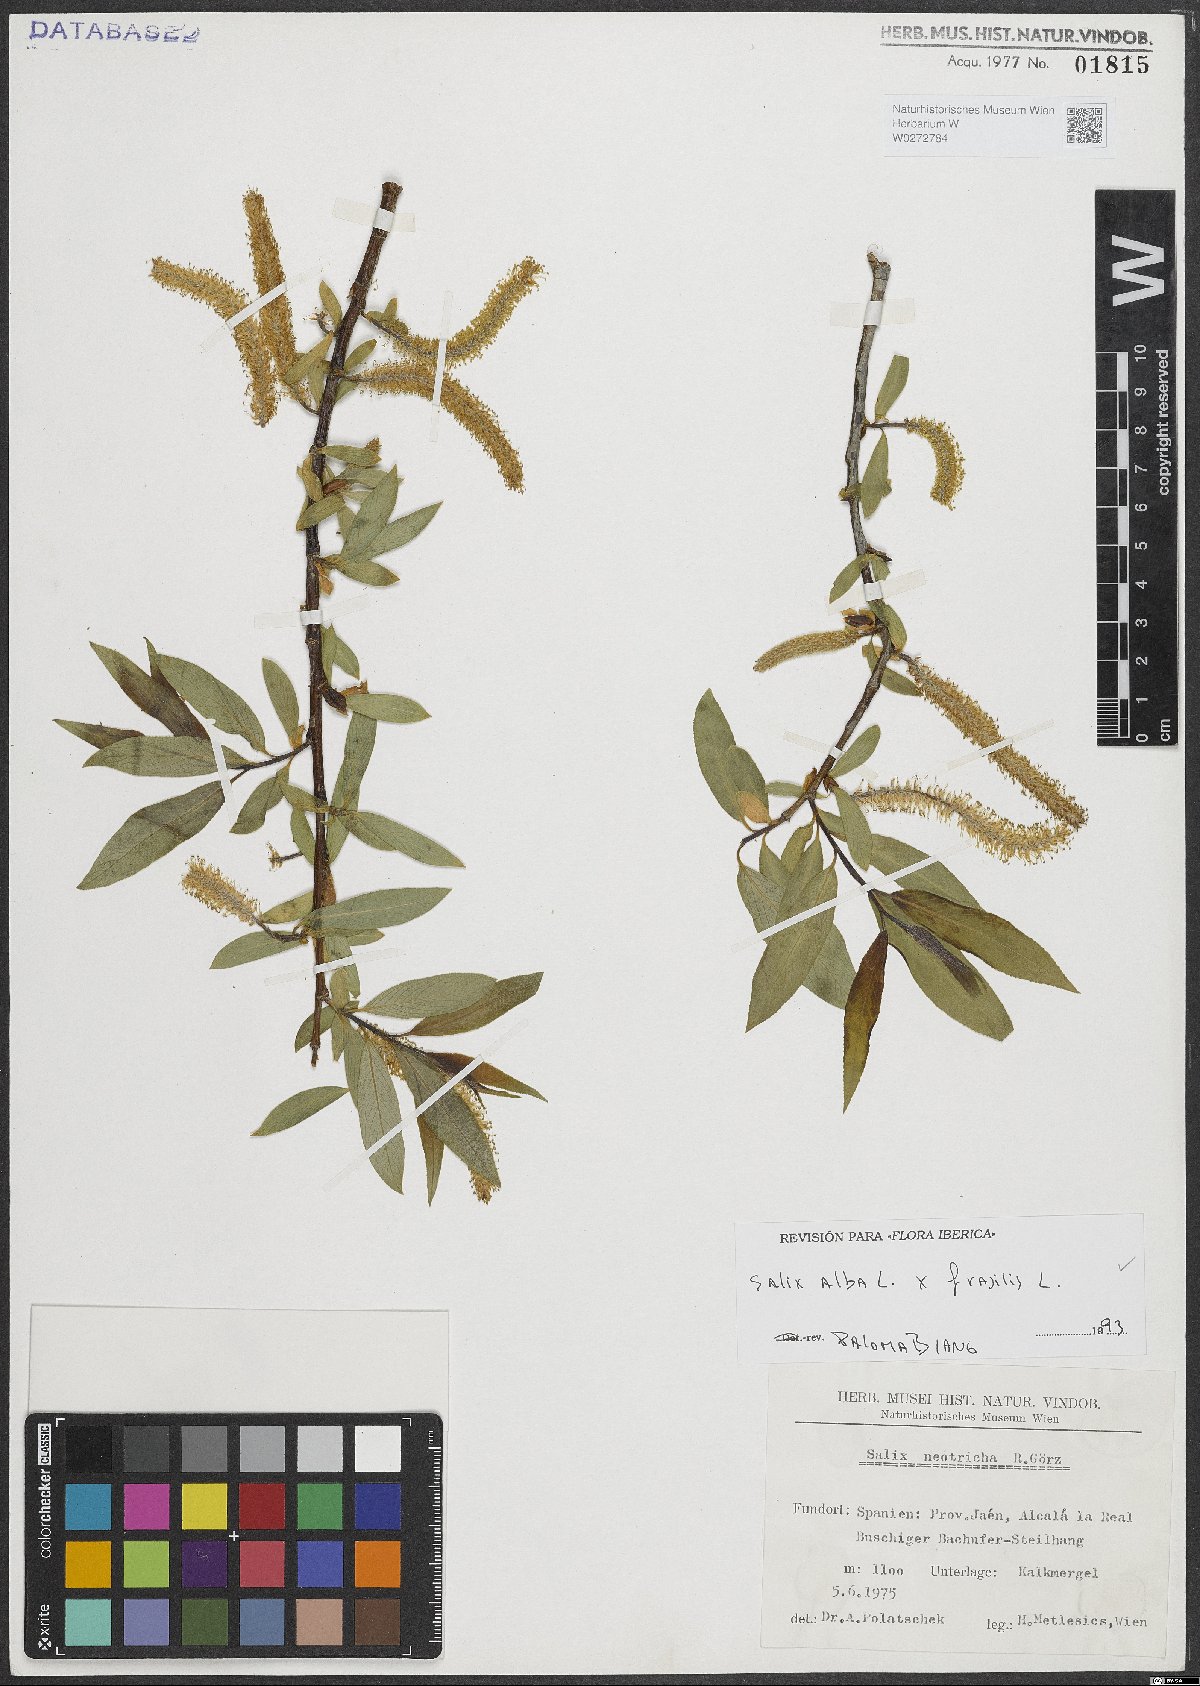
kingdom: Plantae
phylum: Tracheophyta
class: Magnoliopsida
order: Malpighiales
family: Salicaceae
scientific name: Salicaceae
